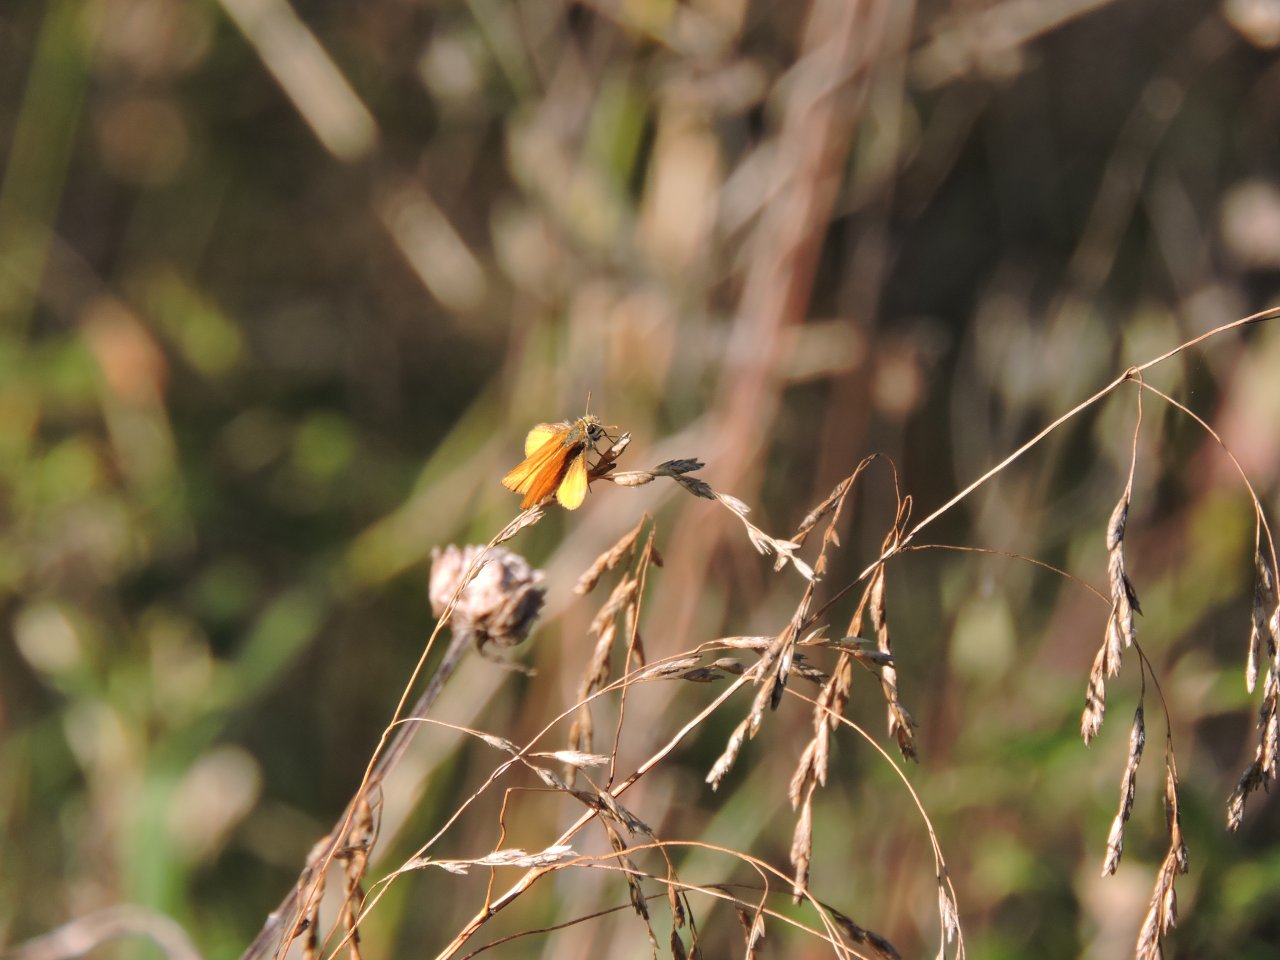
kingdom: Animalia
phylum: Arthropoda
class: Insecta
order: Lepidoptera
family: Hesperiidae
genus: Copaeodes
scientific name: Copaeodes minima
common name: Southern Skipperling
